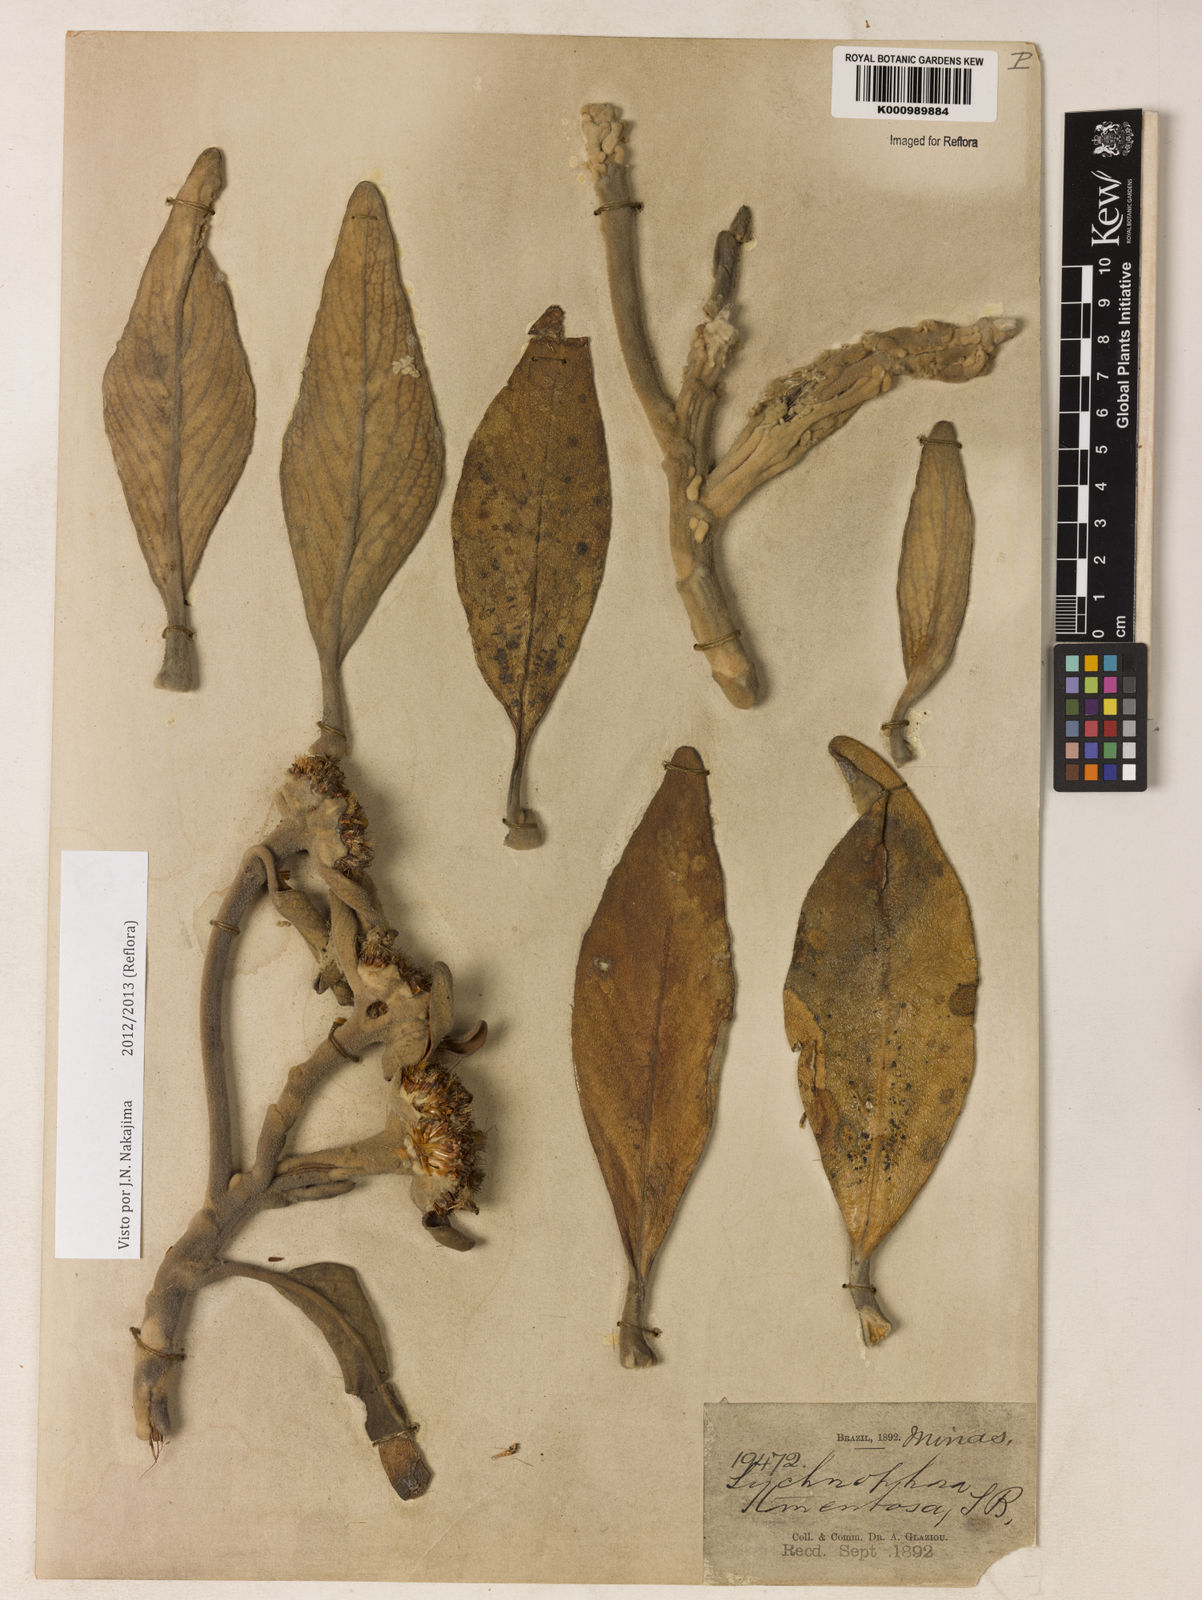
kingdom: Plantae
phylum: Tracheophyta
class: Magnoliopsida
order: Asterales
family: Asteraceae
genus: Lychnocephalus
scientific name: Lychnocephalus tomentosus
